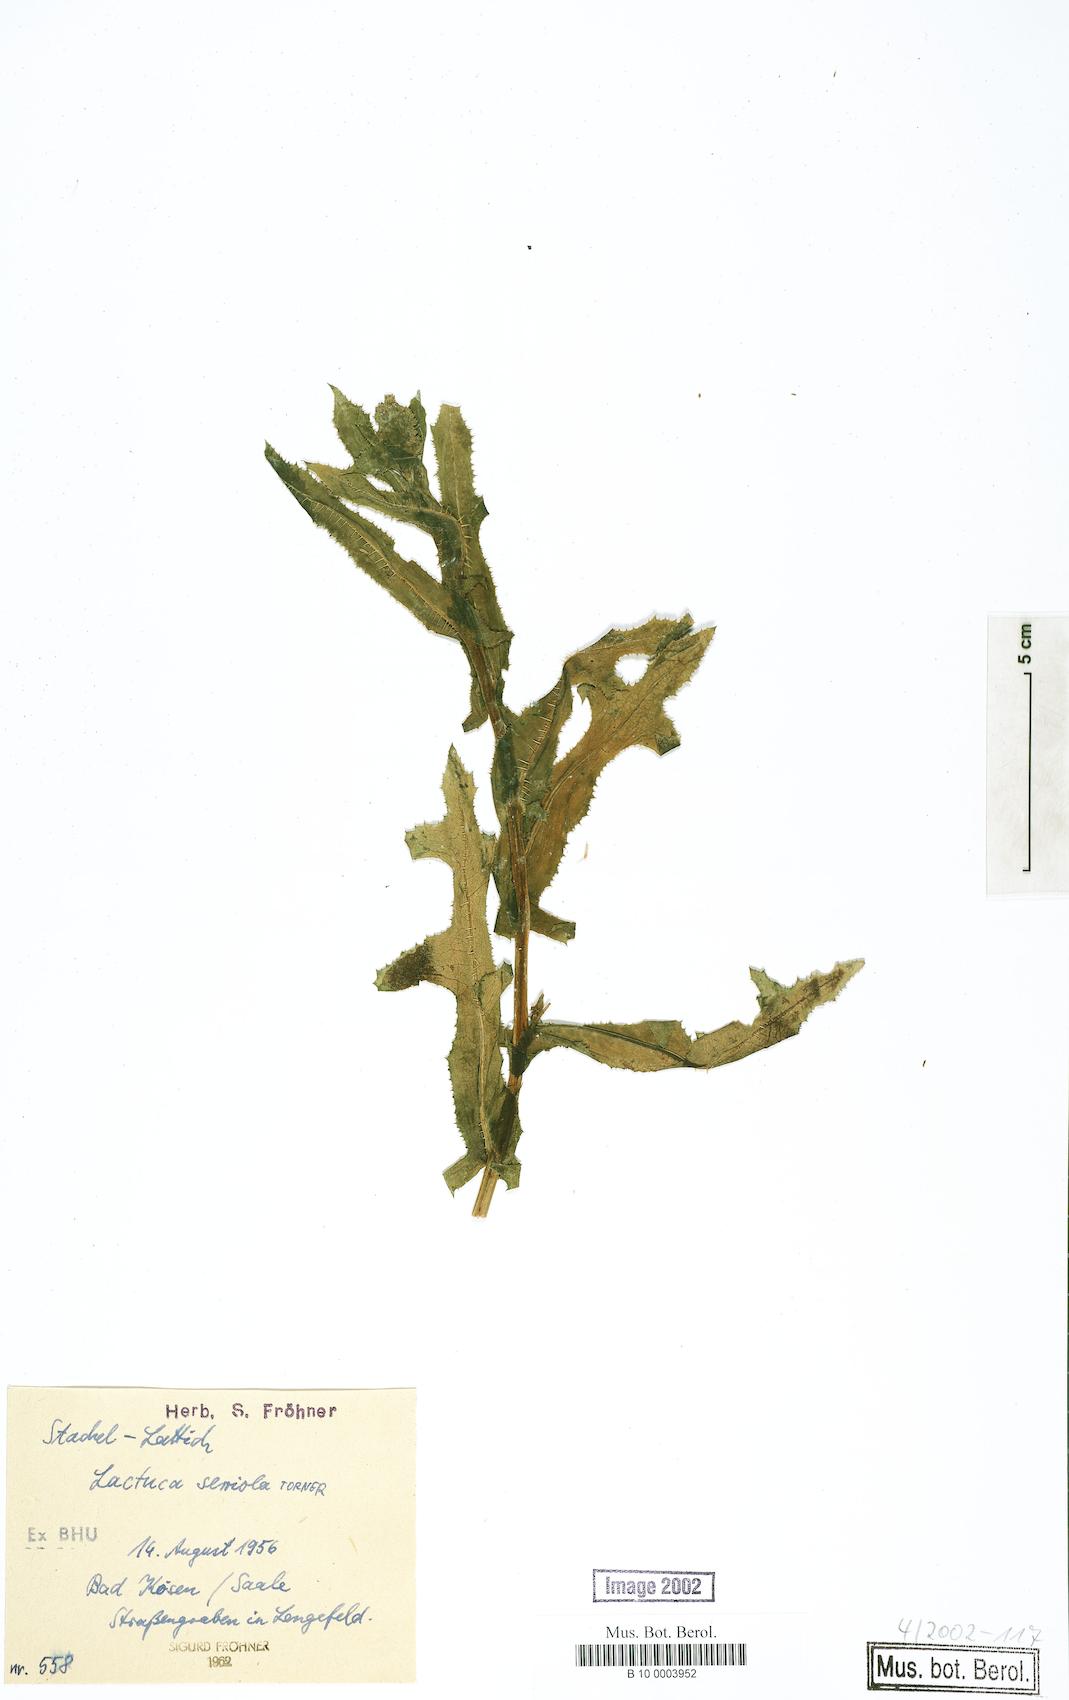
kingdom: Plantae
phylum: Tracheophyta
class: Magnoliopsida
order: Asterales
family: Asteraceae
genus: Lactuca
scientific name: Lactuca serriola
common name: Prickly lettuce
